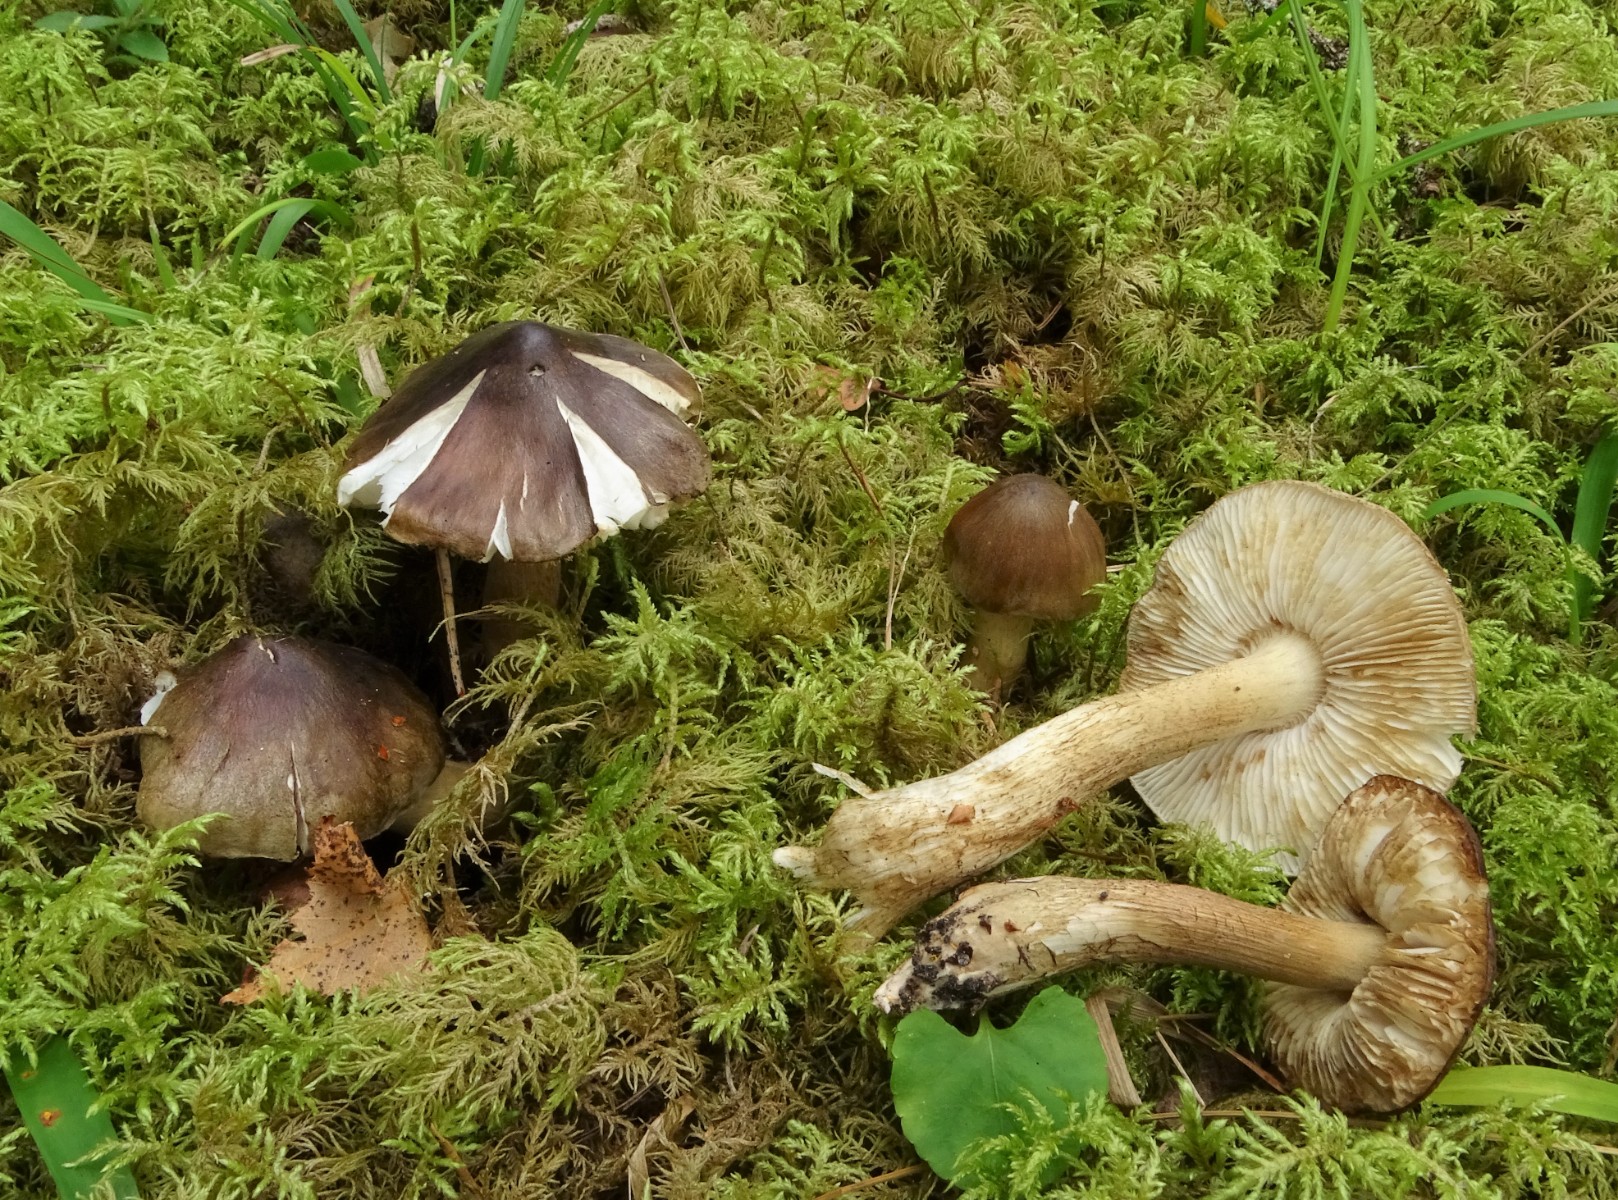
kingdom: Fungi
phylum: Basidiomycota
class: Agaricomycetes
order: Agaricales
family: Tricholomataceae
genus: Tricholoma
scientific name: Tricholoma fucatum
